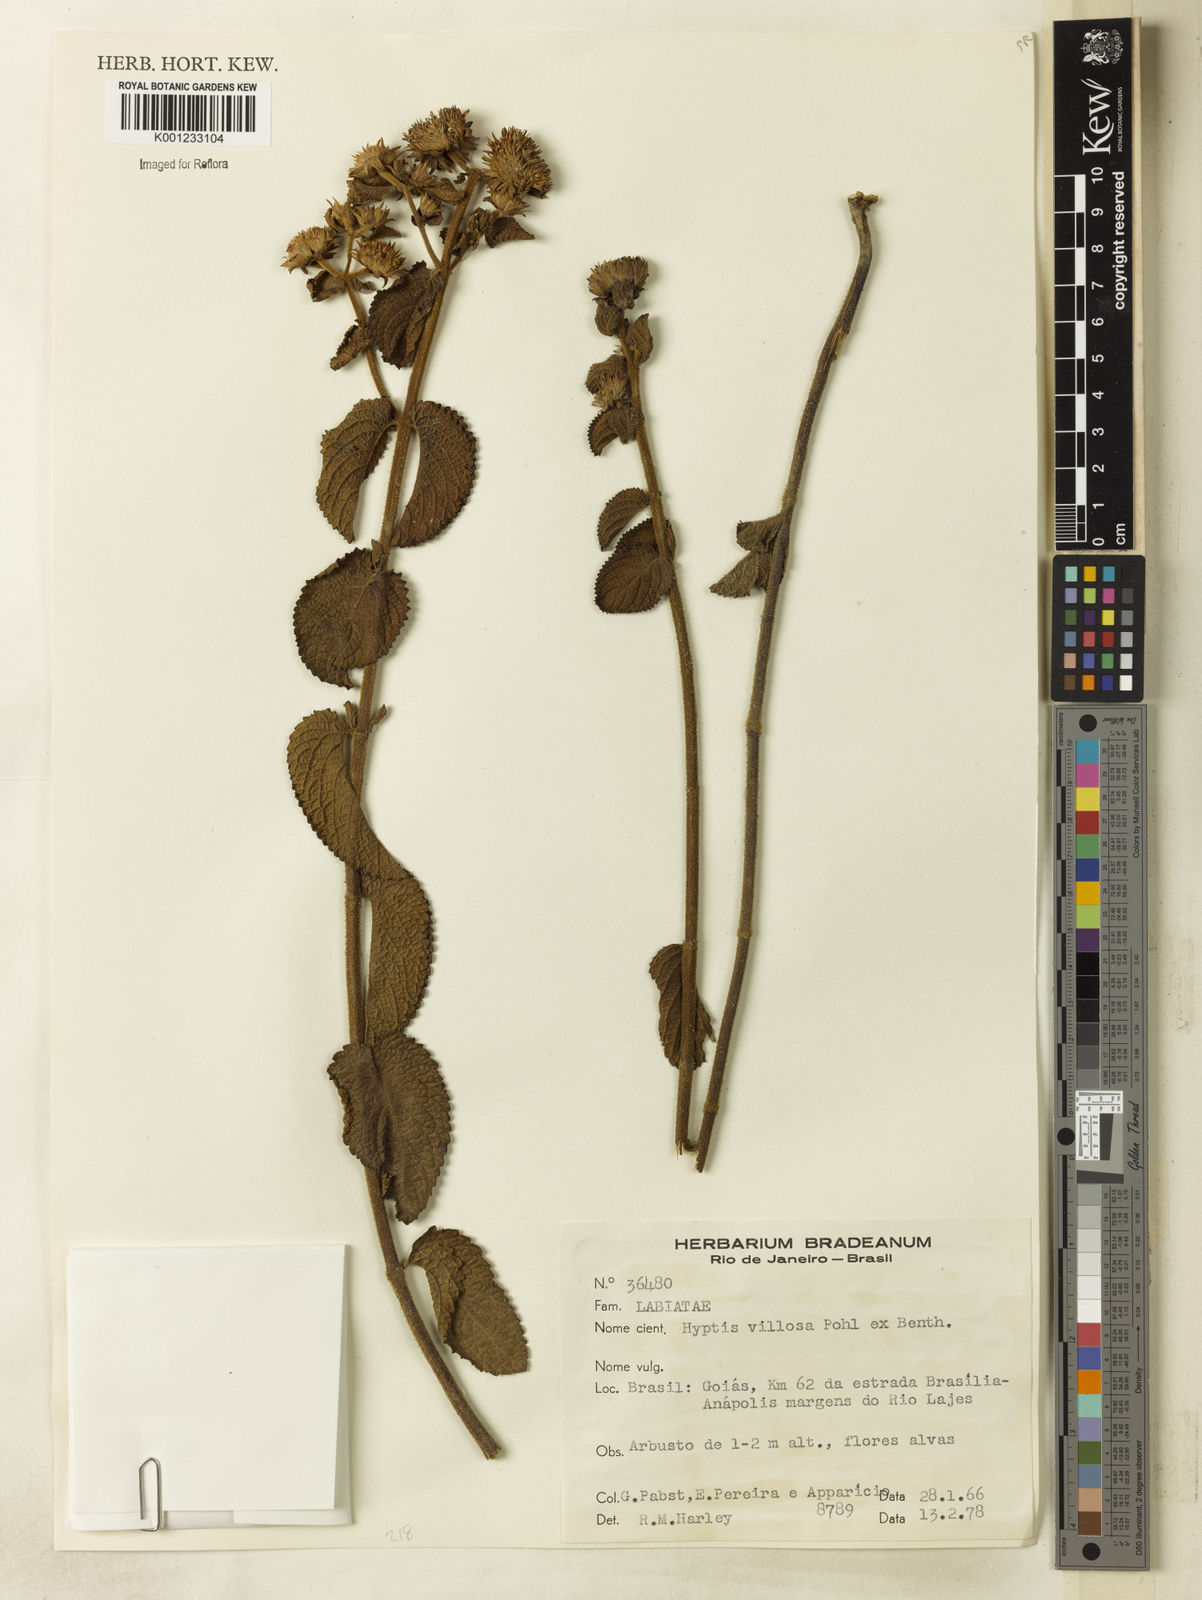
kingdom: Plantae
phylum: Tracheophyta
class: Magnoliopsida
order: Lamiales
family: Lamiaceae
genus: Hyptis
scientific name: Hyptis villosa
